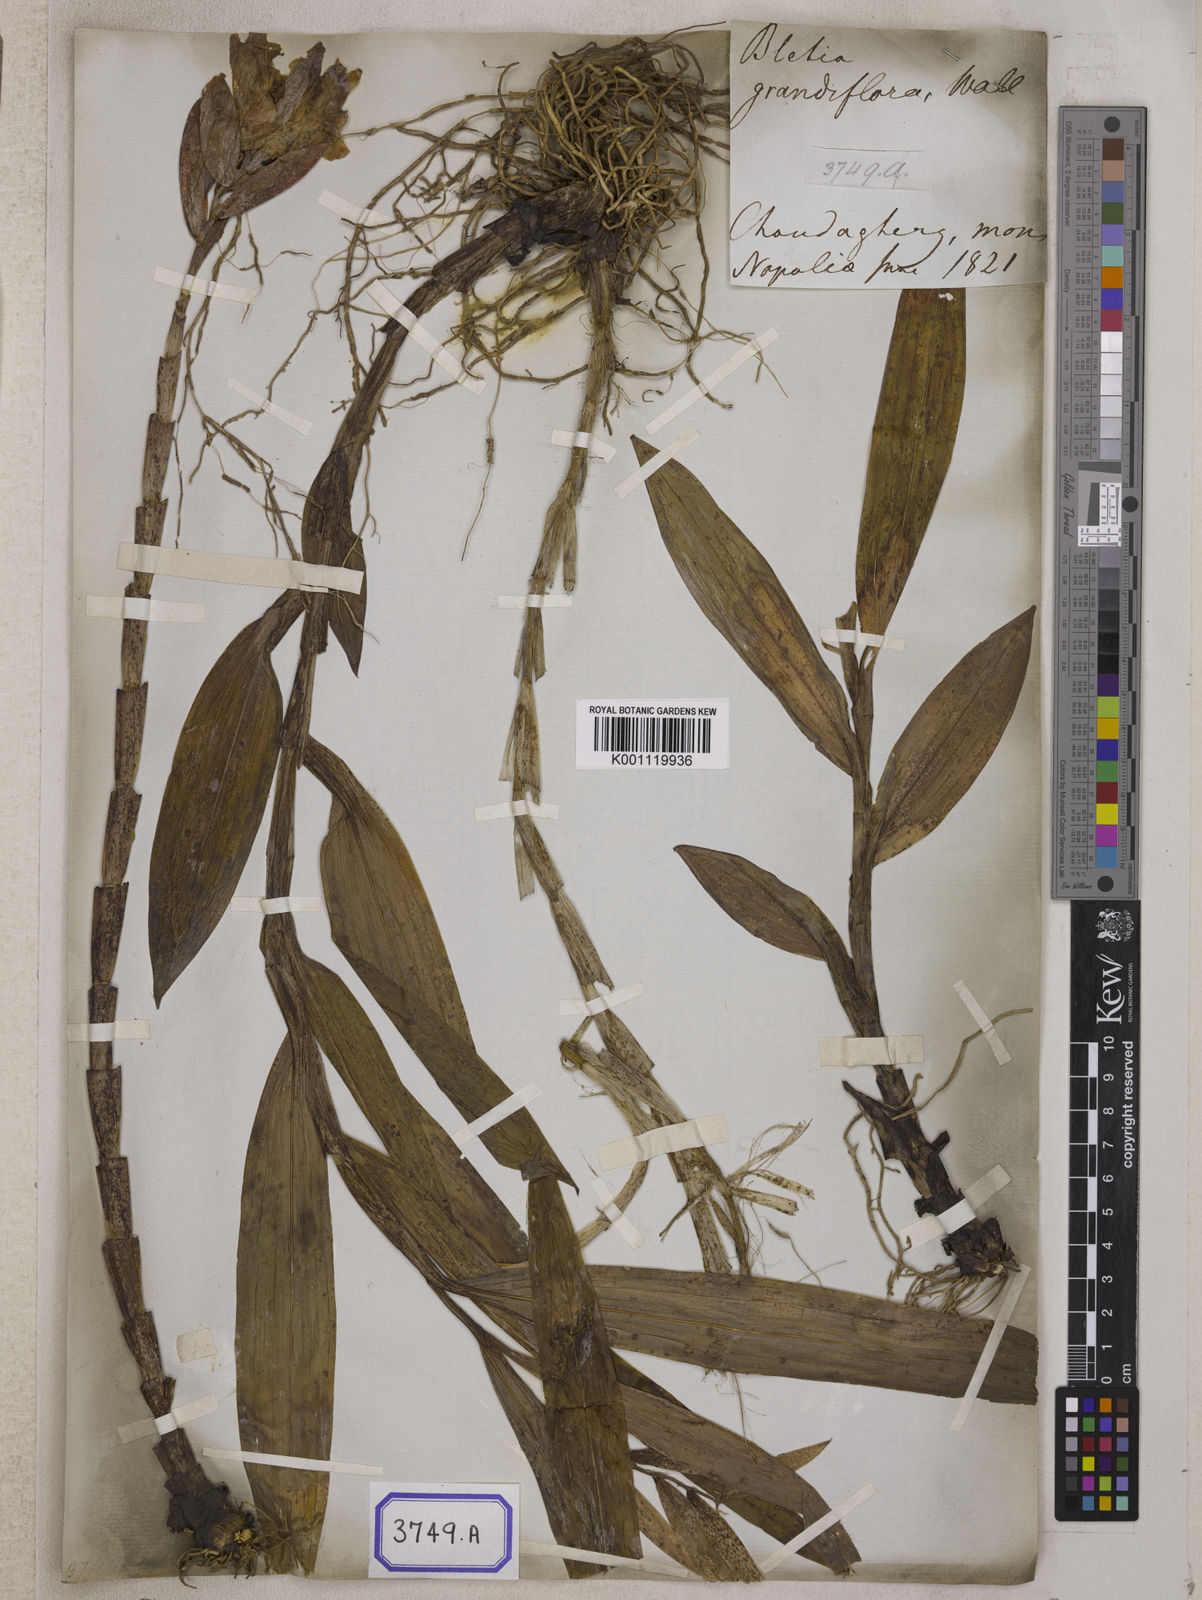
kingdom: Plantae
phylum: Tracheophyta
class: Liliopsida
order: Asparagales
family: Orchidaceae
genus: Thunia
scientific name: Thunia alba
